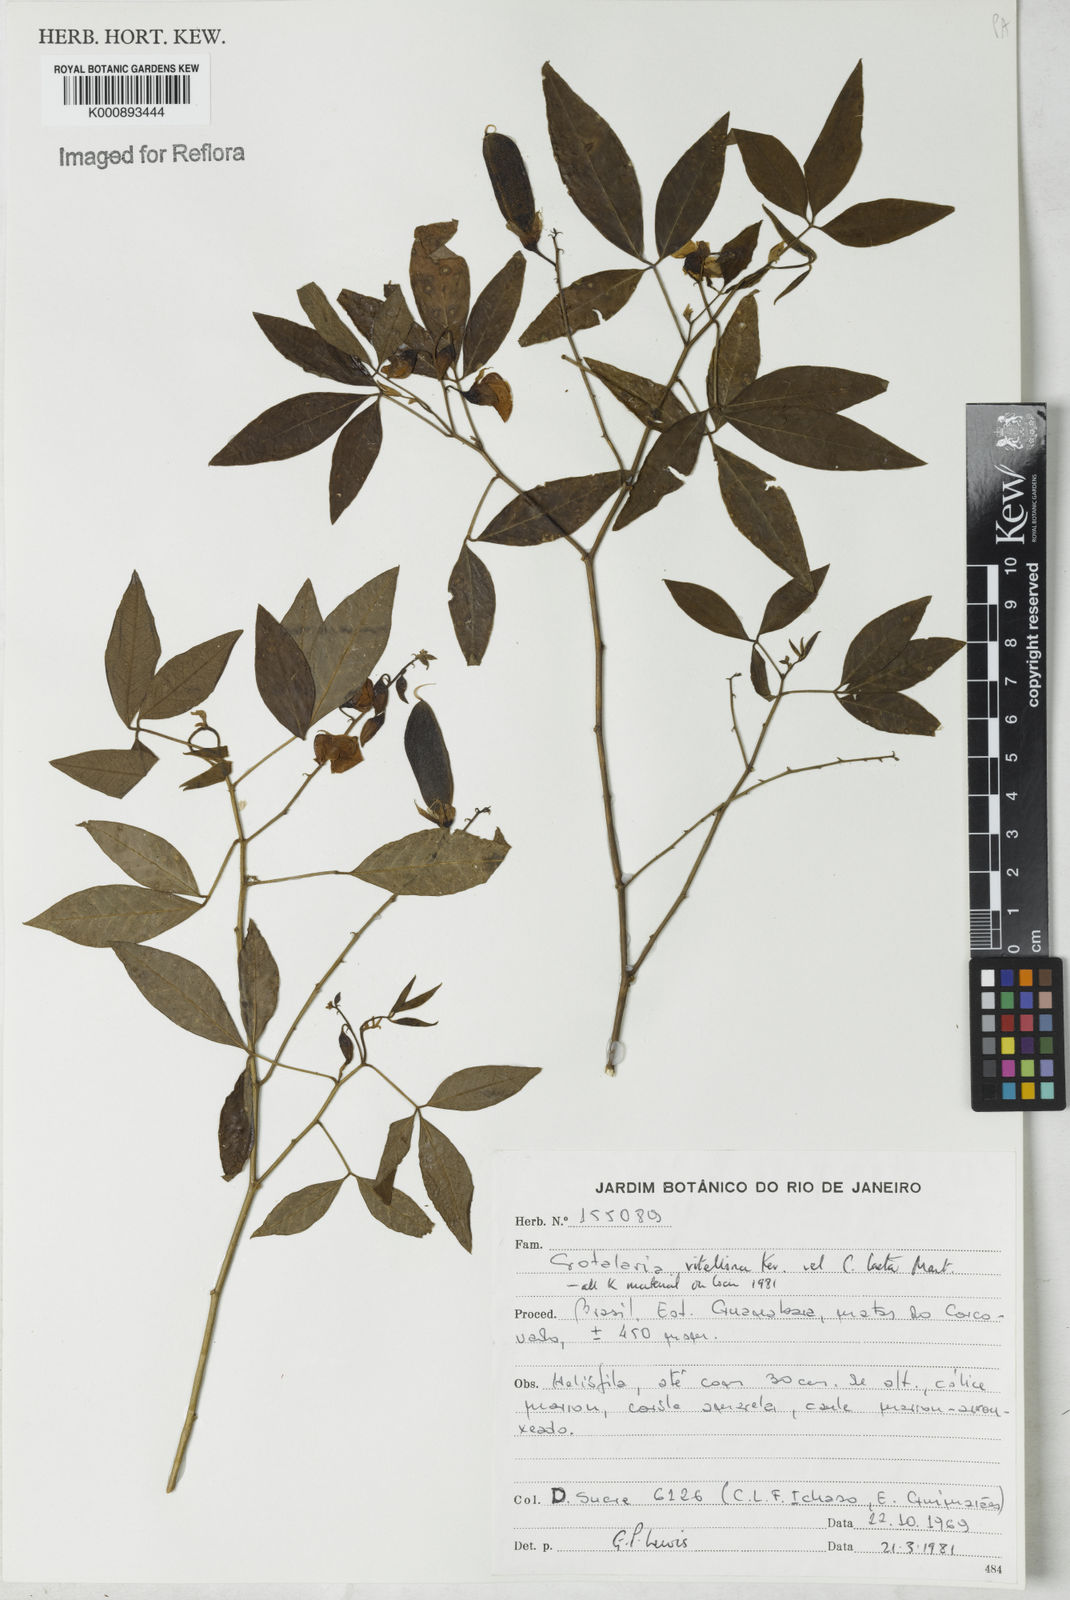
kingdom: Plantae
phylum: Tracheophyta
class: Magnoliopsida
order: Fabales
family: Fabaceae
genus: Crotalaria
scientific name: Crotalaria vitellina
